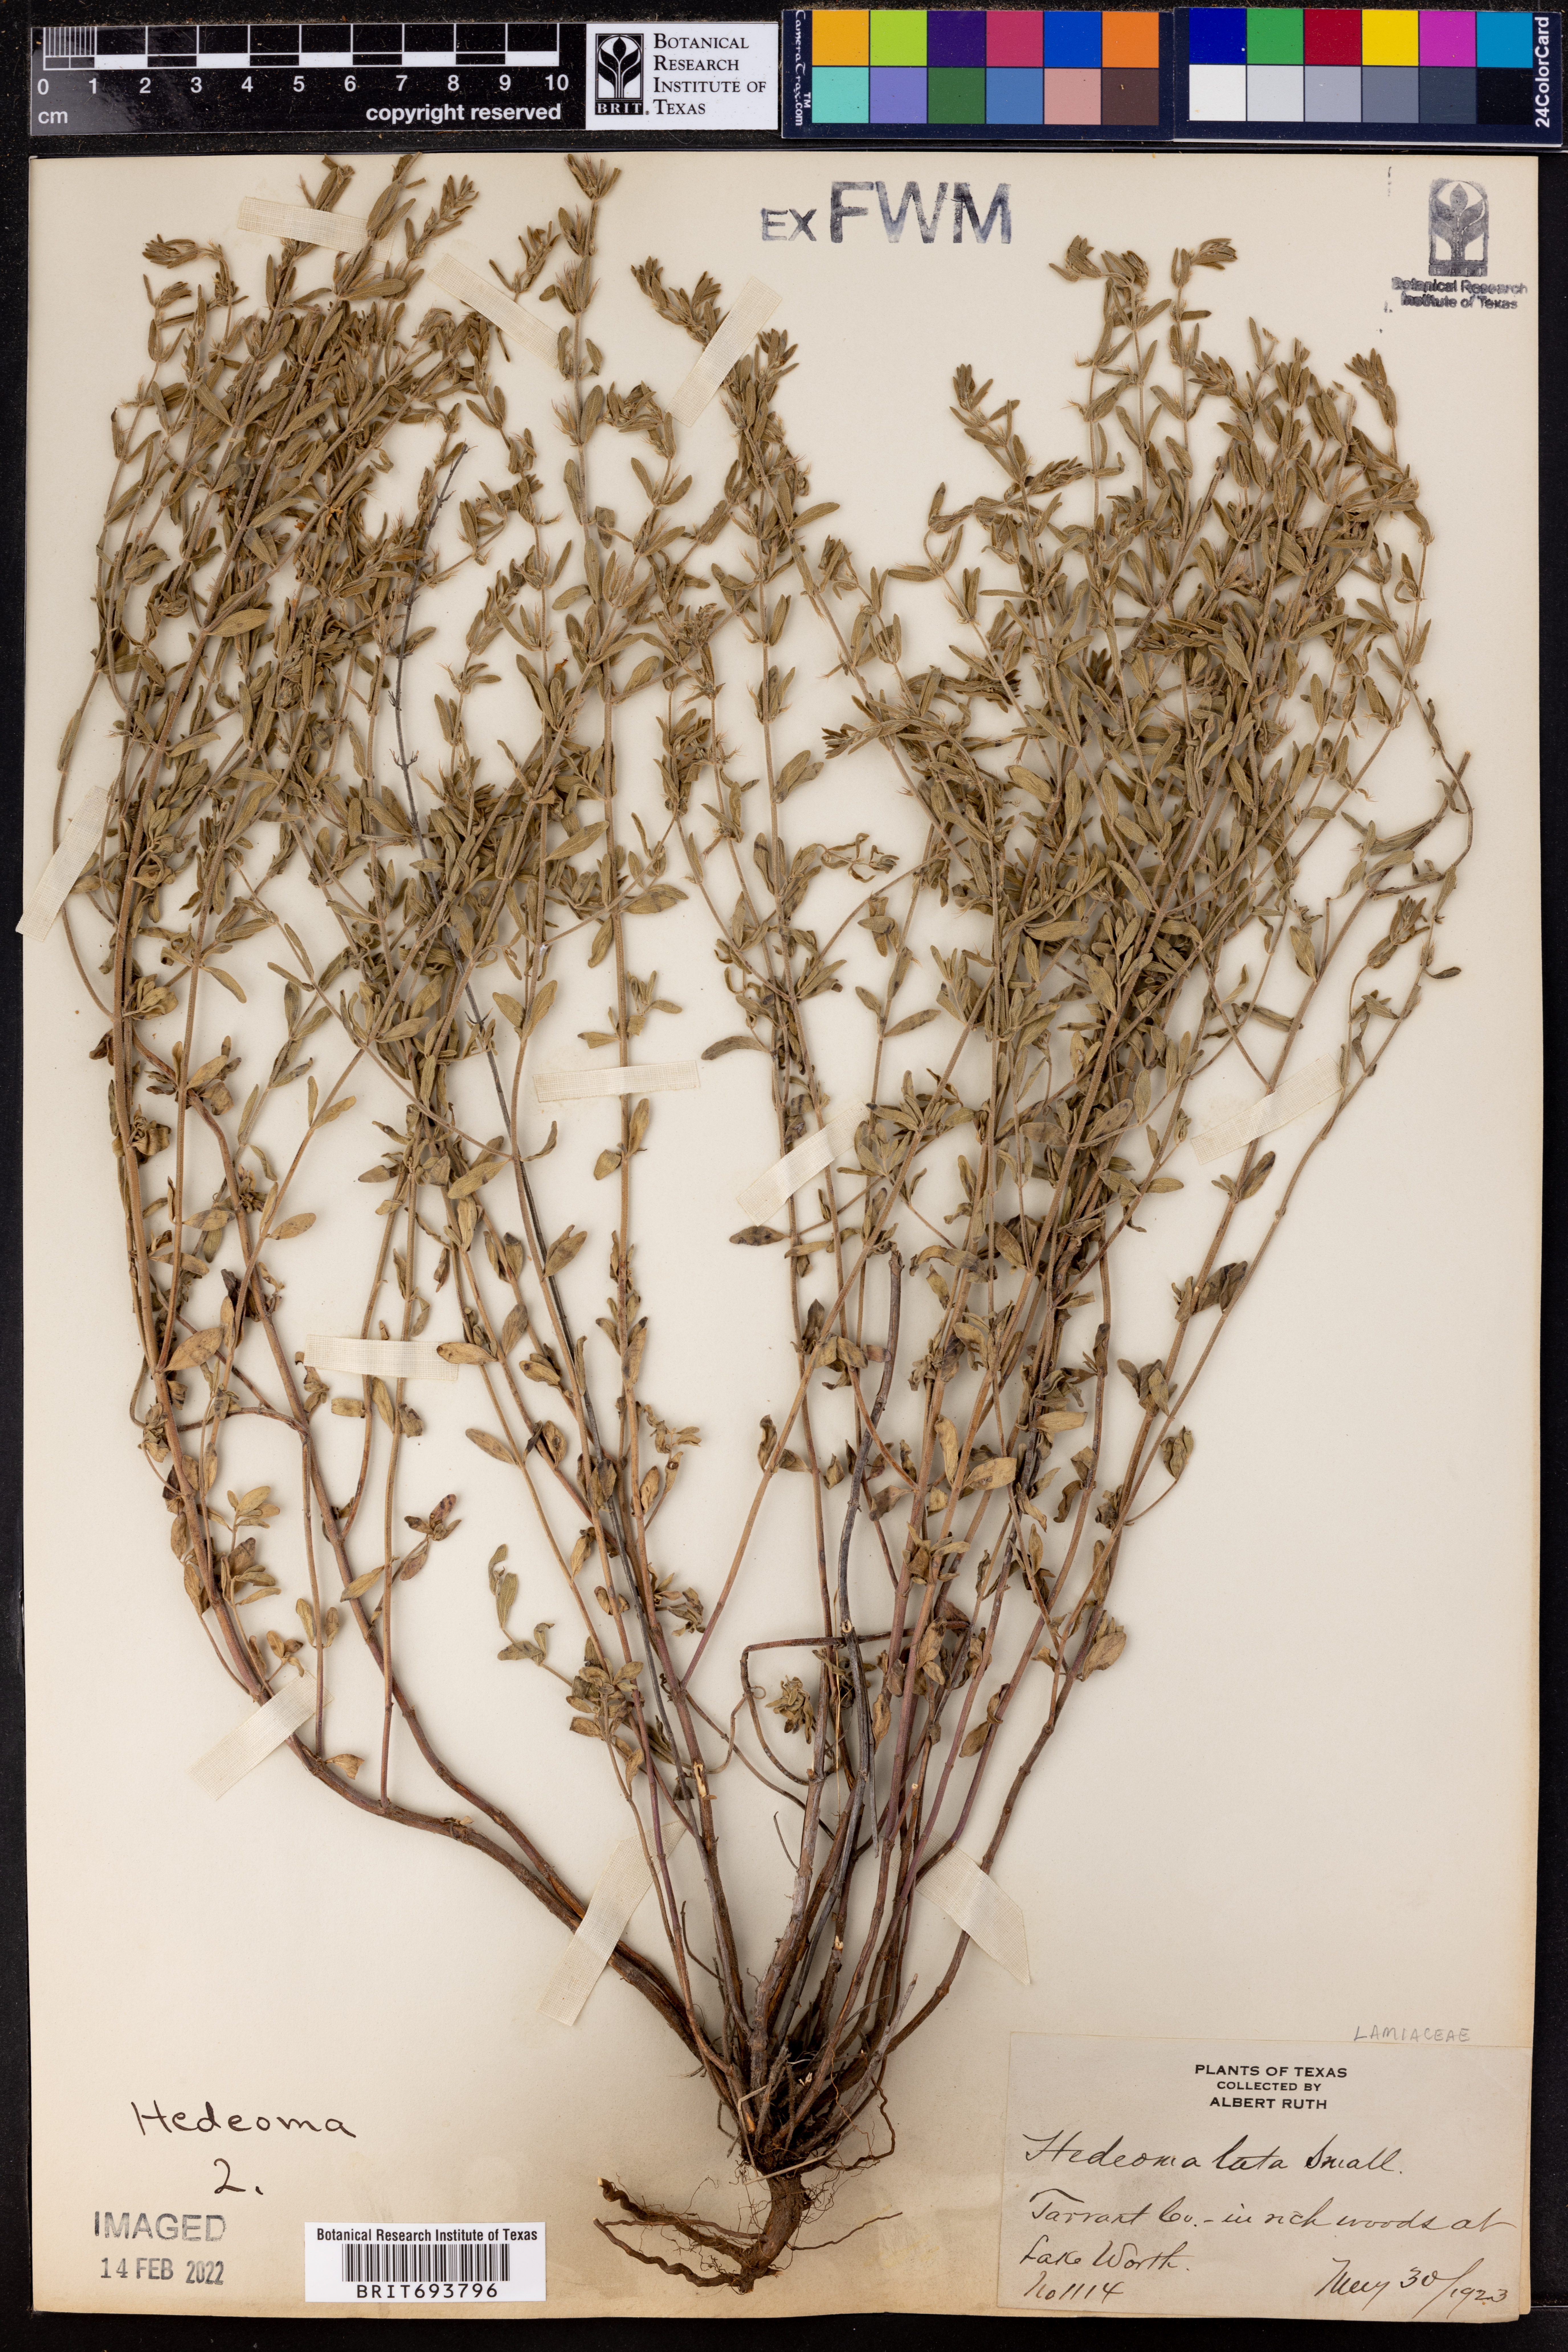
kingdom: Plantae
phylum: Tracheophyta
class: Magnoliopsida
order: Lamiales
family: Lamiaceae
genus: Hedeoma
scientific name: Hedeoma reverchonii
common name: Reverchon's false penny-royal
